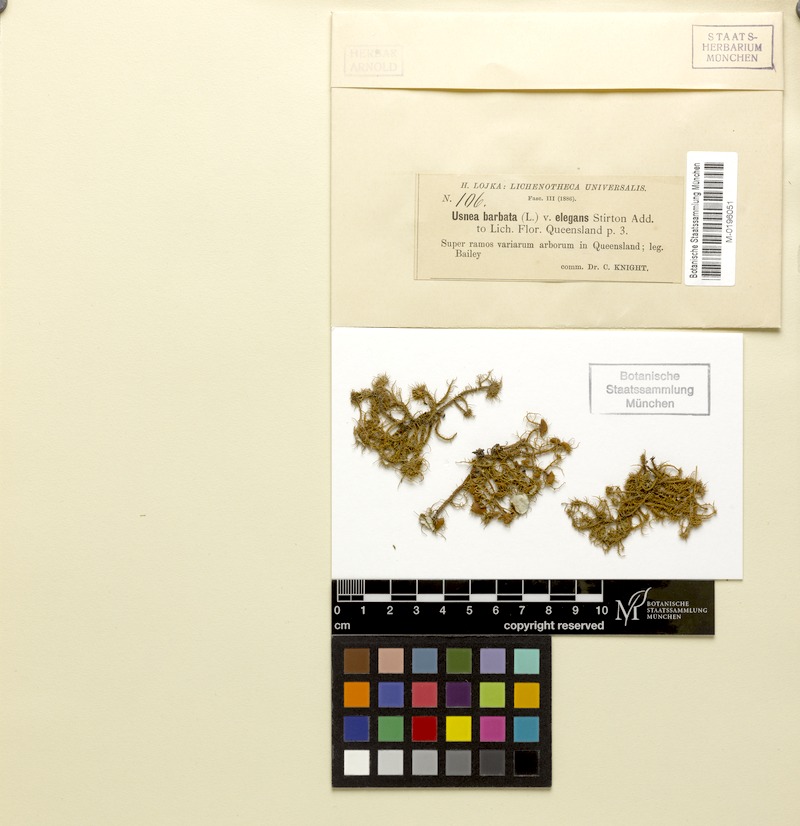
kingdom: Fungi
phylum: Ascomycota
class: Lecanoromycetes
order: Lecanorales
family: Parmeliaceae
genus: Usnea
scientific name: Usnea scabrida
